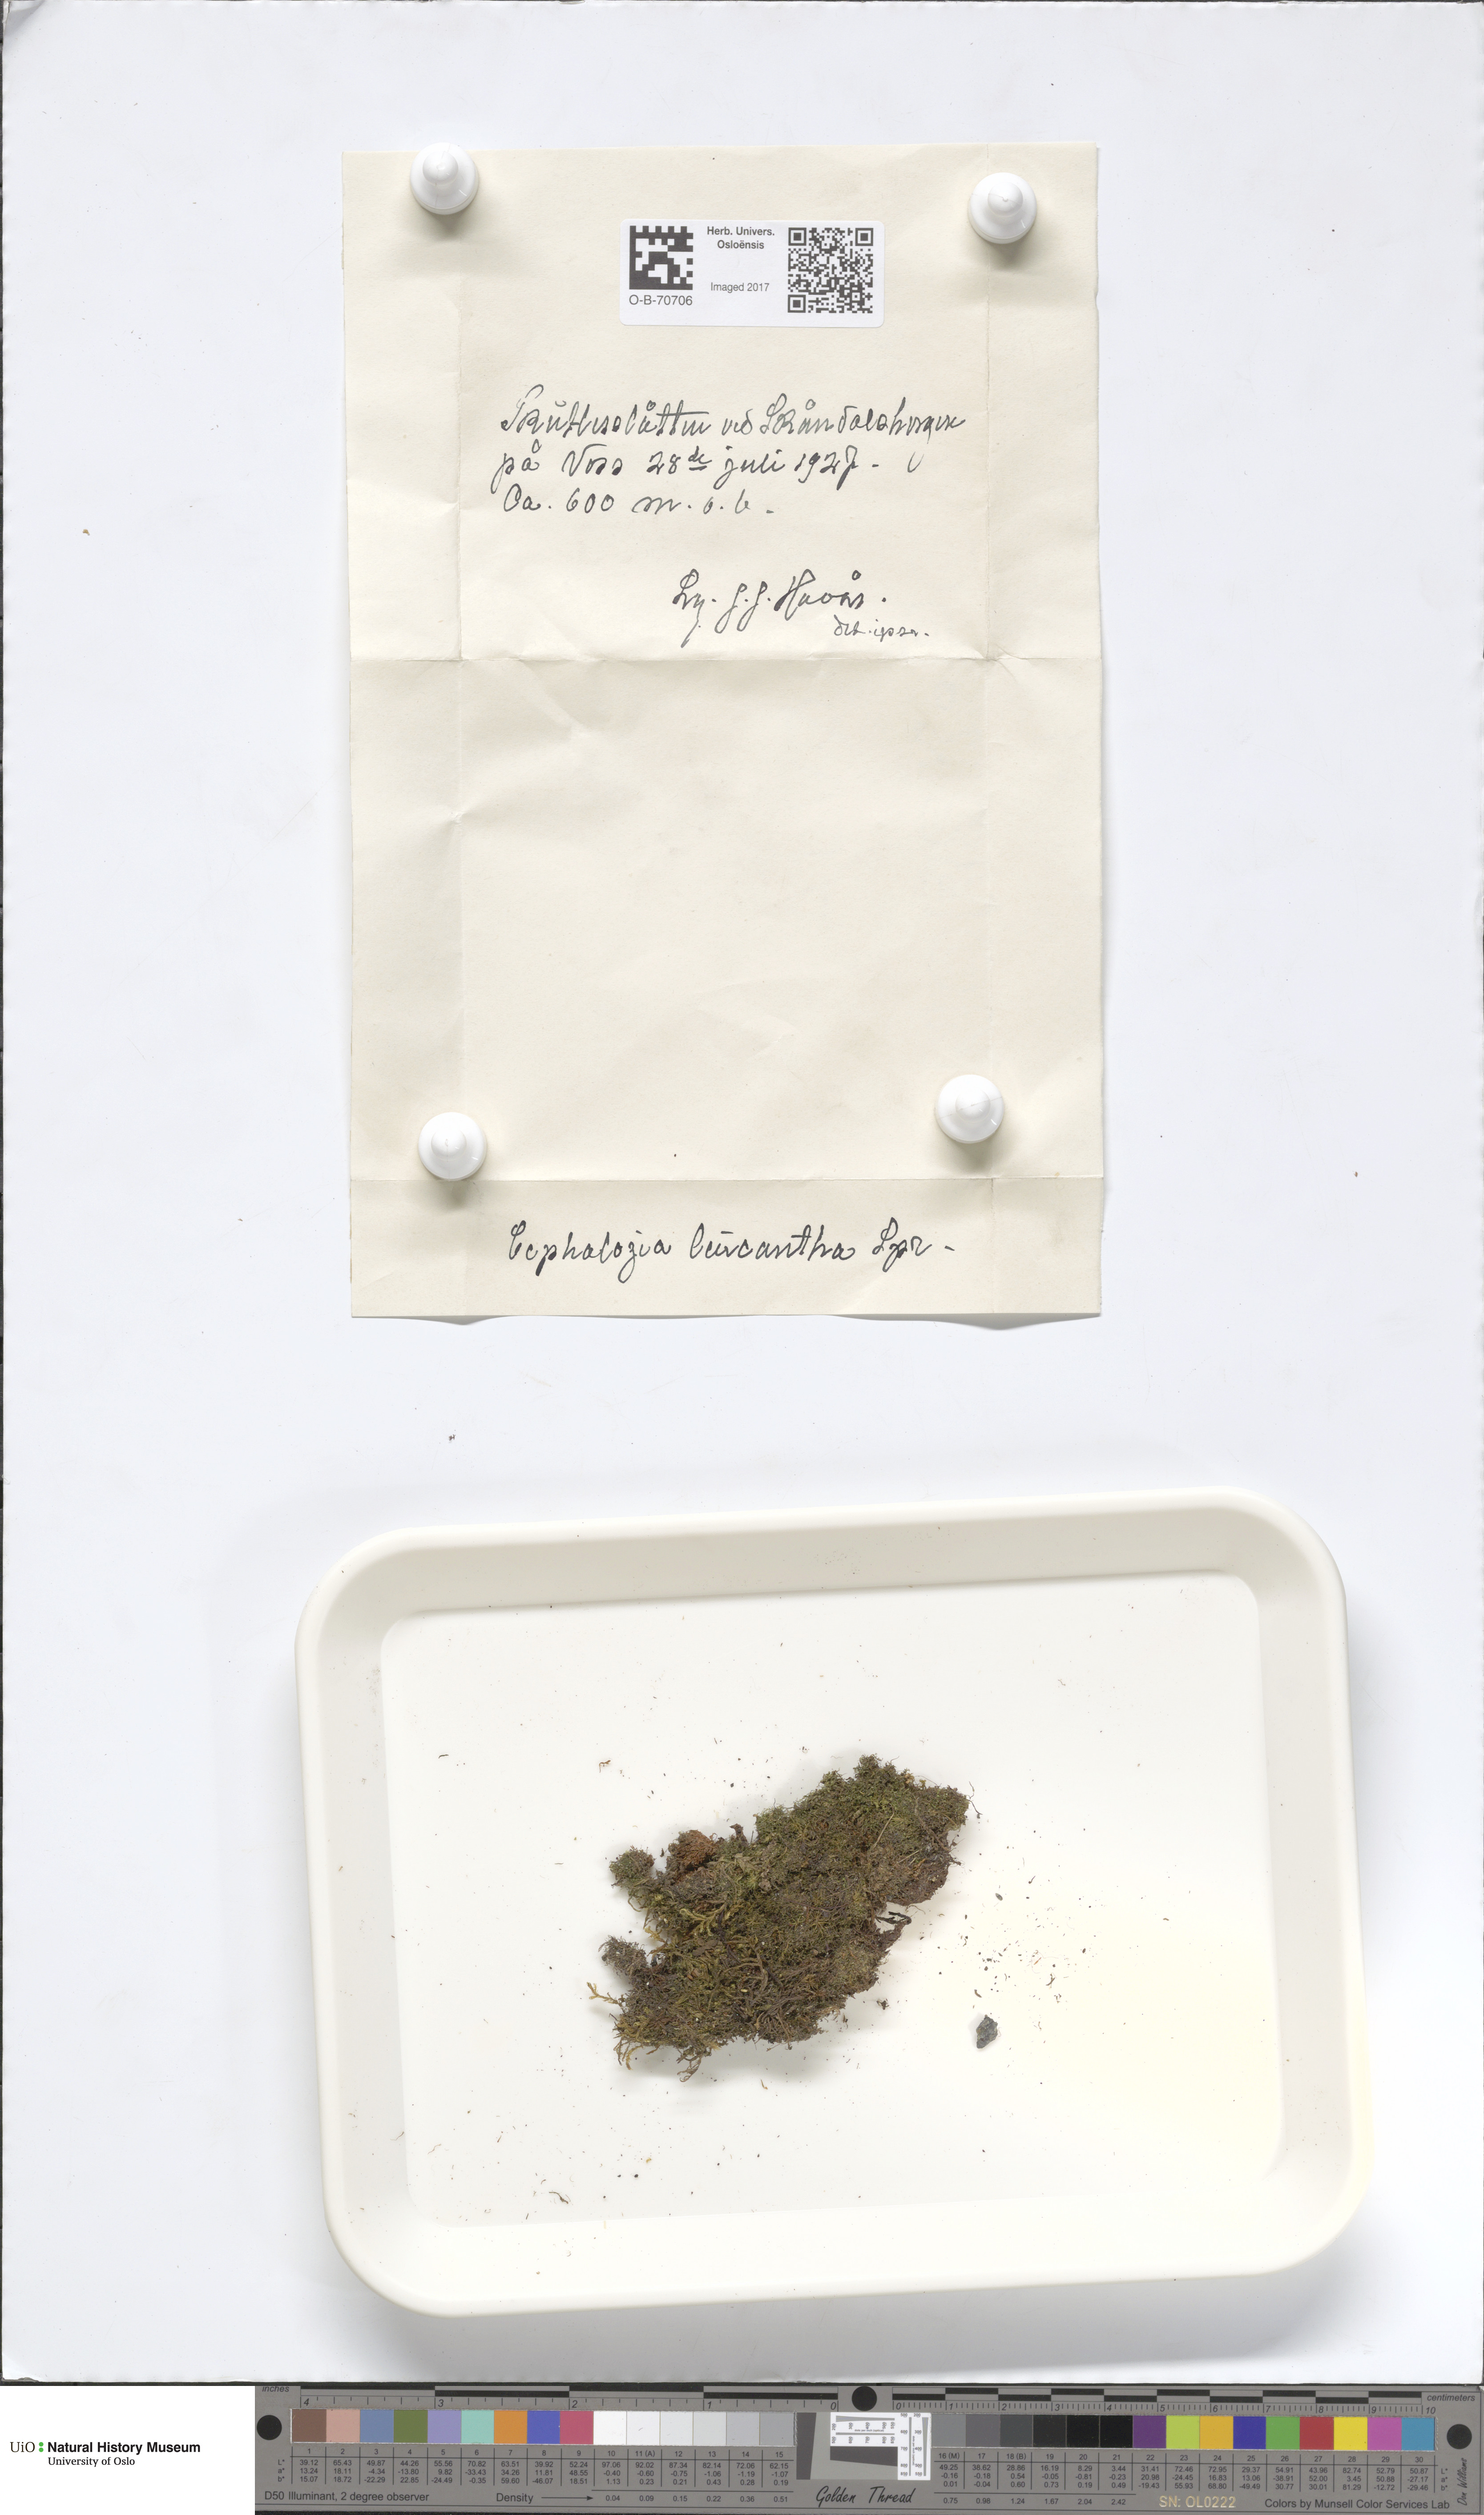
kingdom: Plantae
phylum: Marchantiophyta
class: Jungermanniopsida
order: Jungermanniales
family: Cephaloziaceae
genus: Fuscocephaloziopsis
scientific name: Fuscocephaloziopsis leucantha
